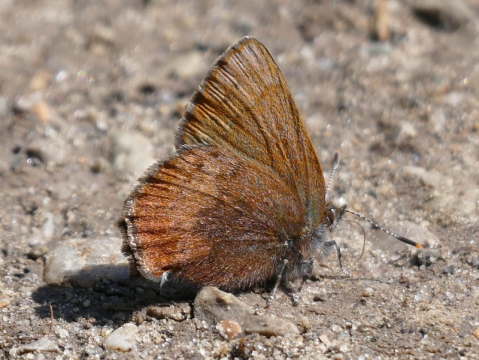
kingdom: Animalia
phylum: Arthropoda
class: Insecta
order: Lepidoptera
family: Lycaenidae
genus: Incisalia
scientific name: Incisalia irioides
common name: Brown Elfin
